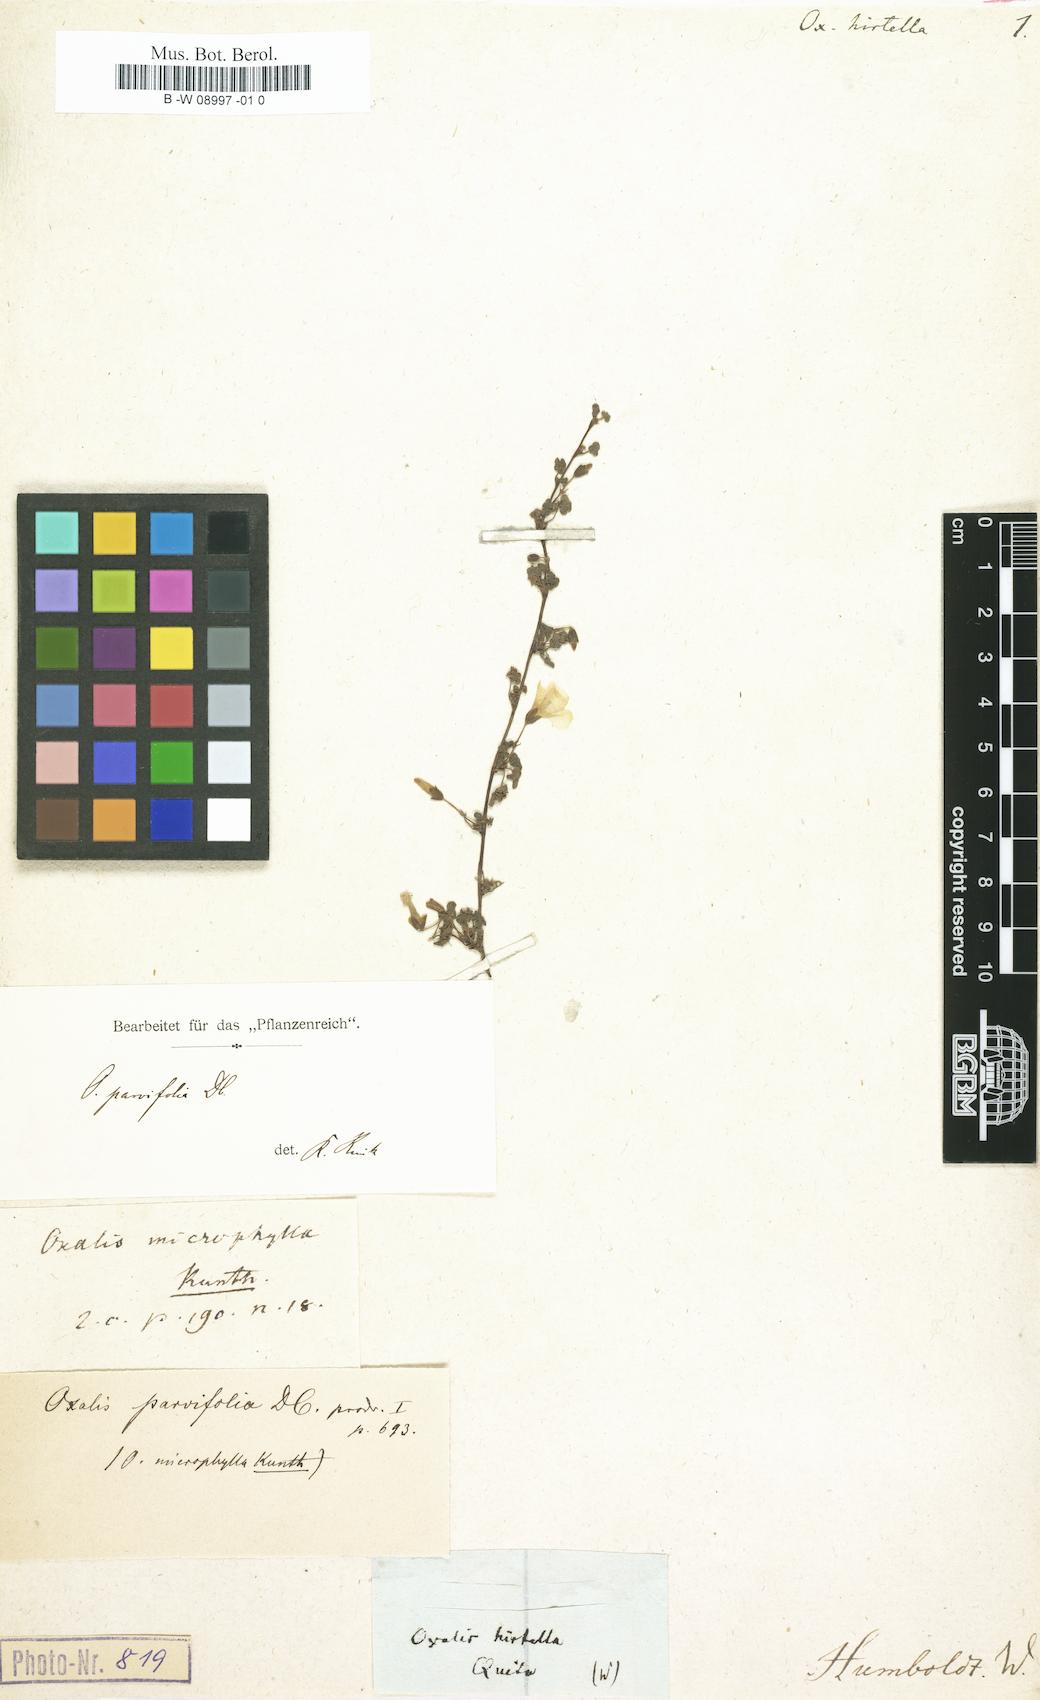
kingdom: Plantae
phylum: Tracheophyta
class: Magnoliopsida
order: Oxalidales
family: Oxalidaceae
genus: Oxalis
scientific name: Oxalis filiformis
